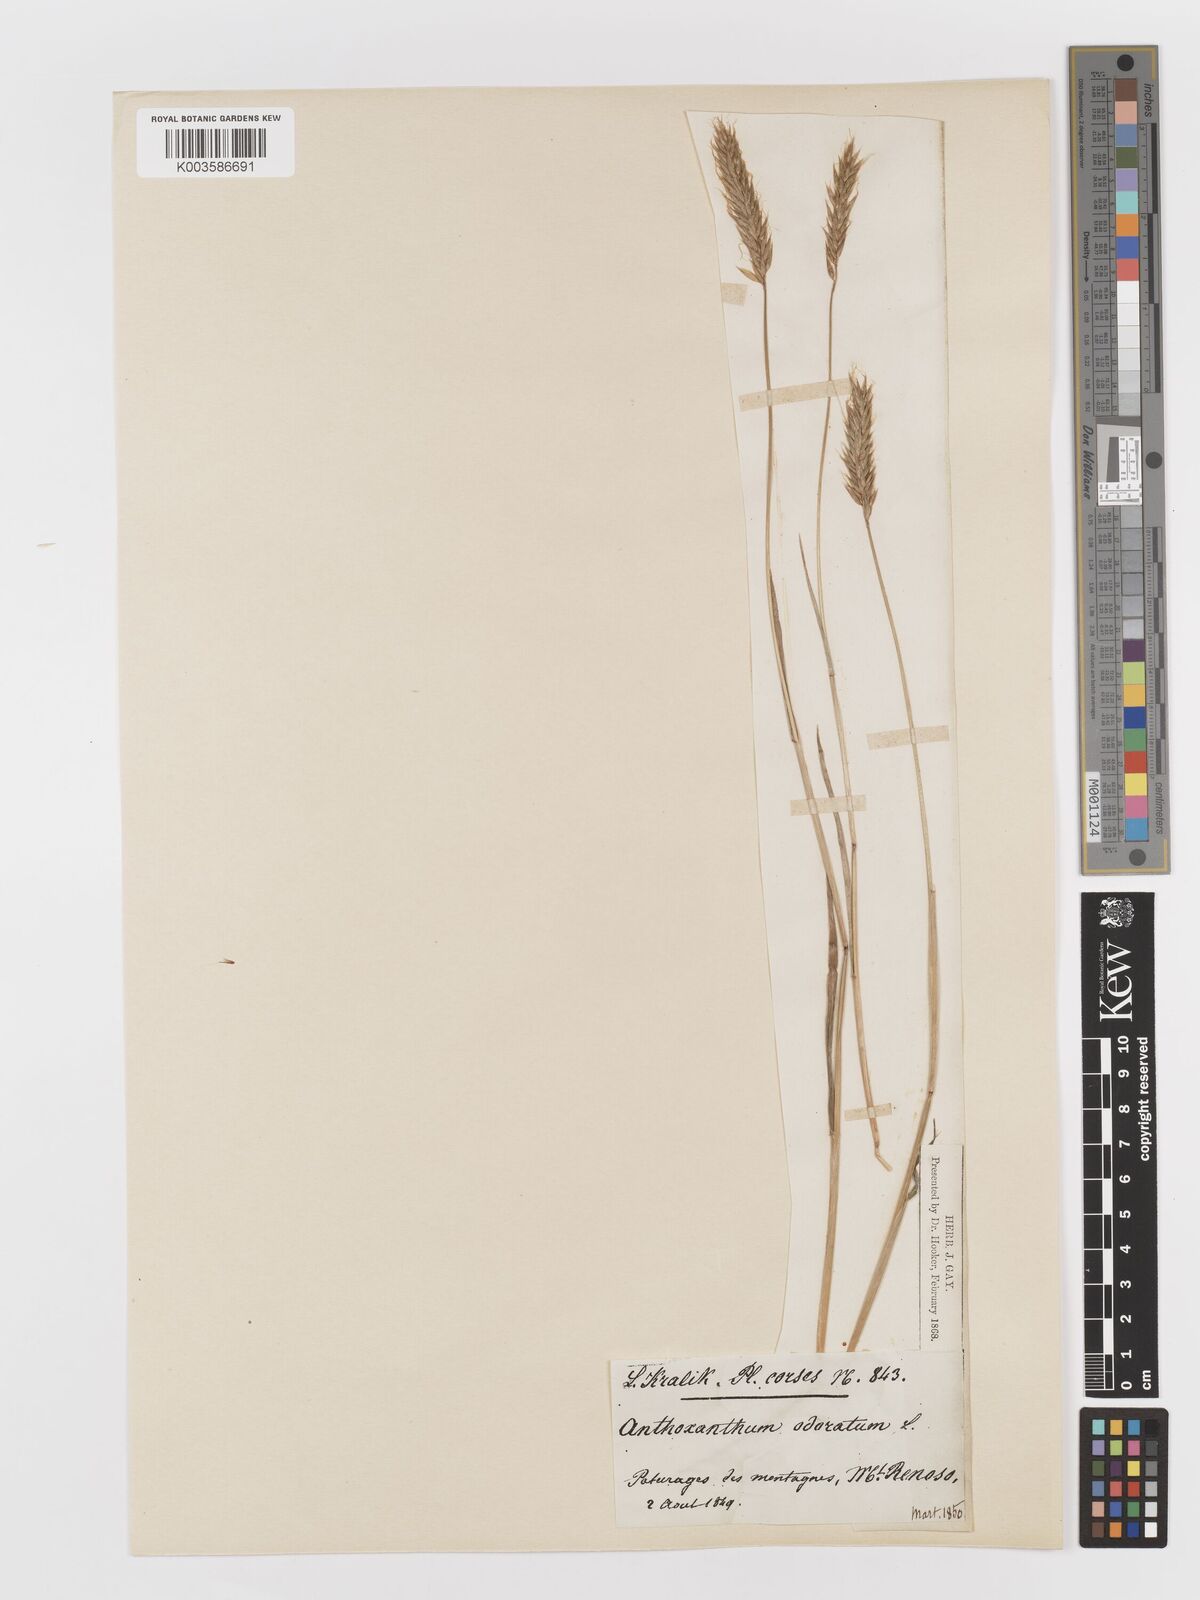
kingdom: Plantae
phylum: Tracheophyta
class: Liliopsida
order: Poales
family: Poaceae
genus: Anthoxanthum
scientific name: Anthoxanthum odoratum
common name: Sweet vernalgrass
